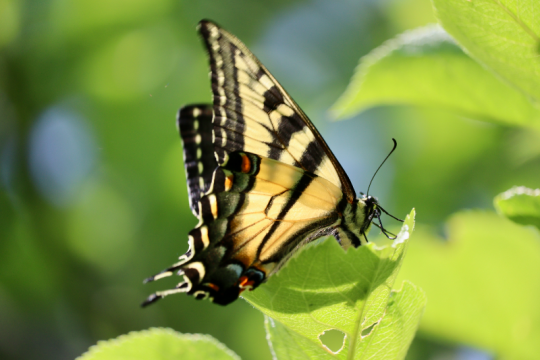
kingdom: Animalia
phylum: Arthropoda
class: Insecta
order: Lepidoptera
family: Papilionidae
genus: Pterourus
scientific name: Pterourus canadensis
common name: Canadian Tiger Swallowtail
